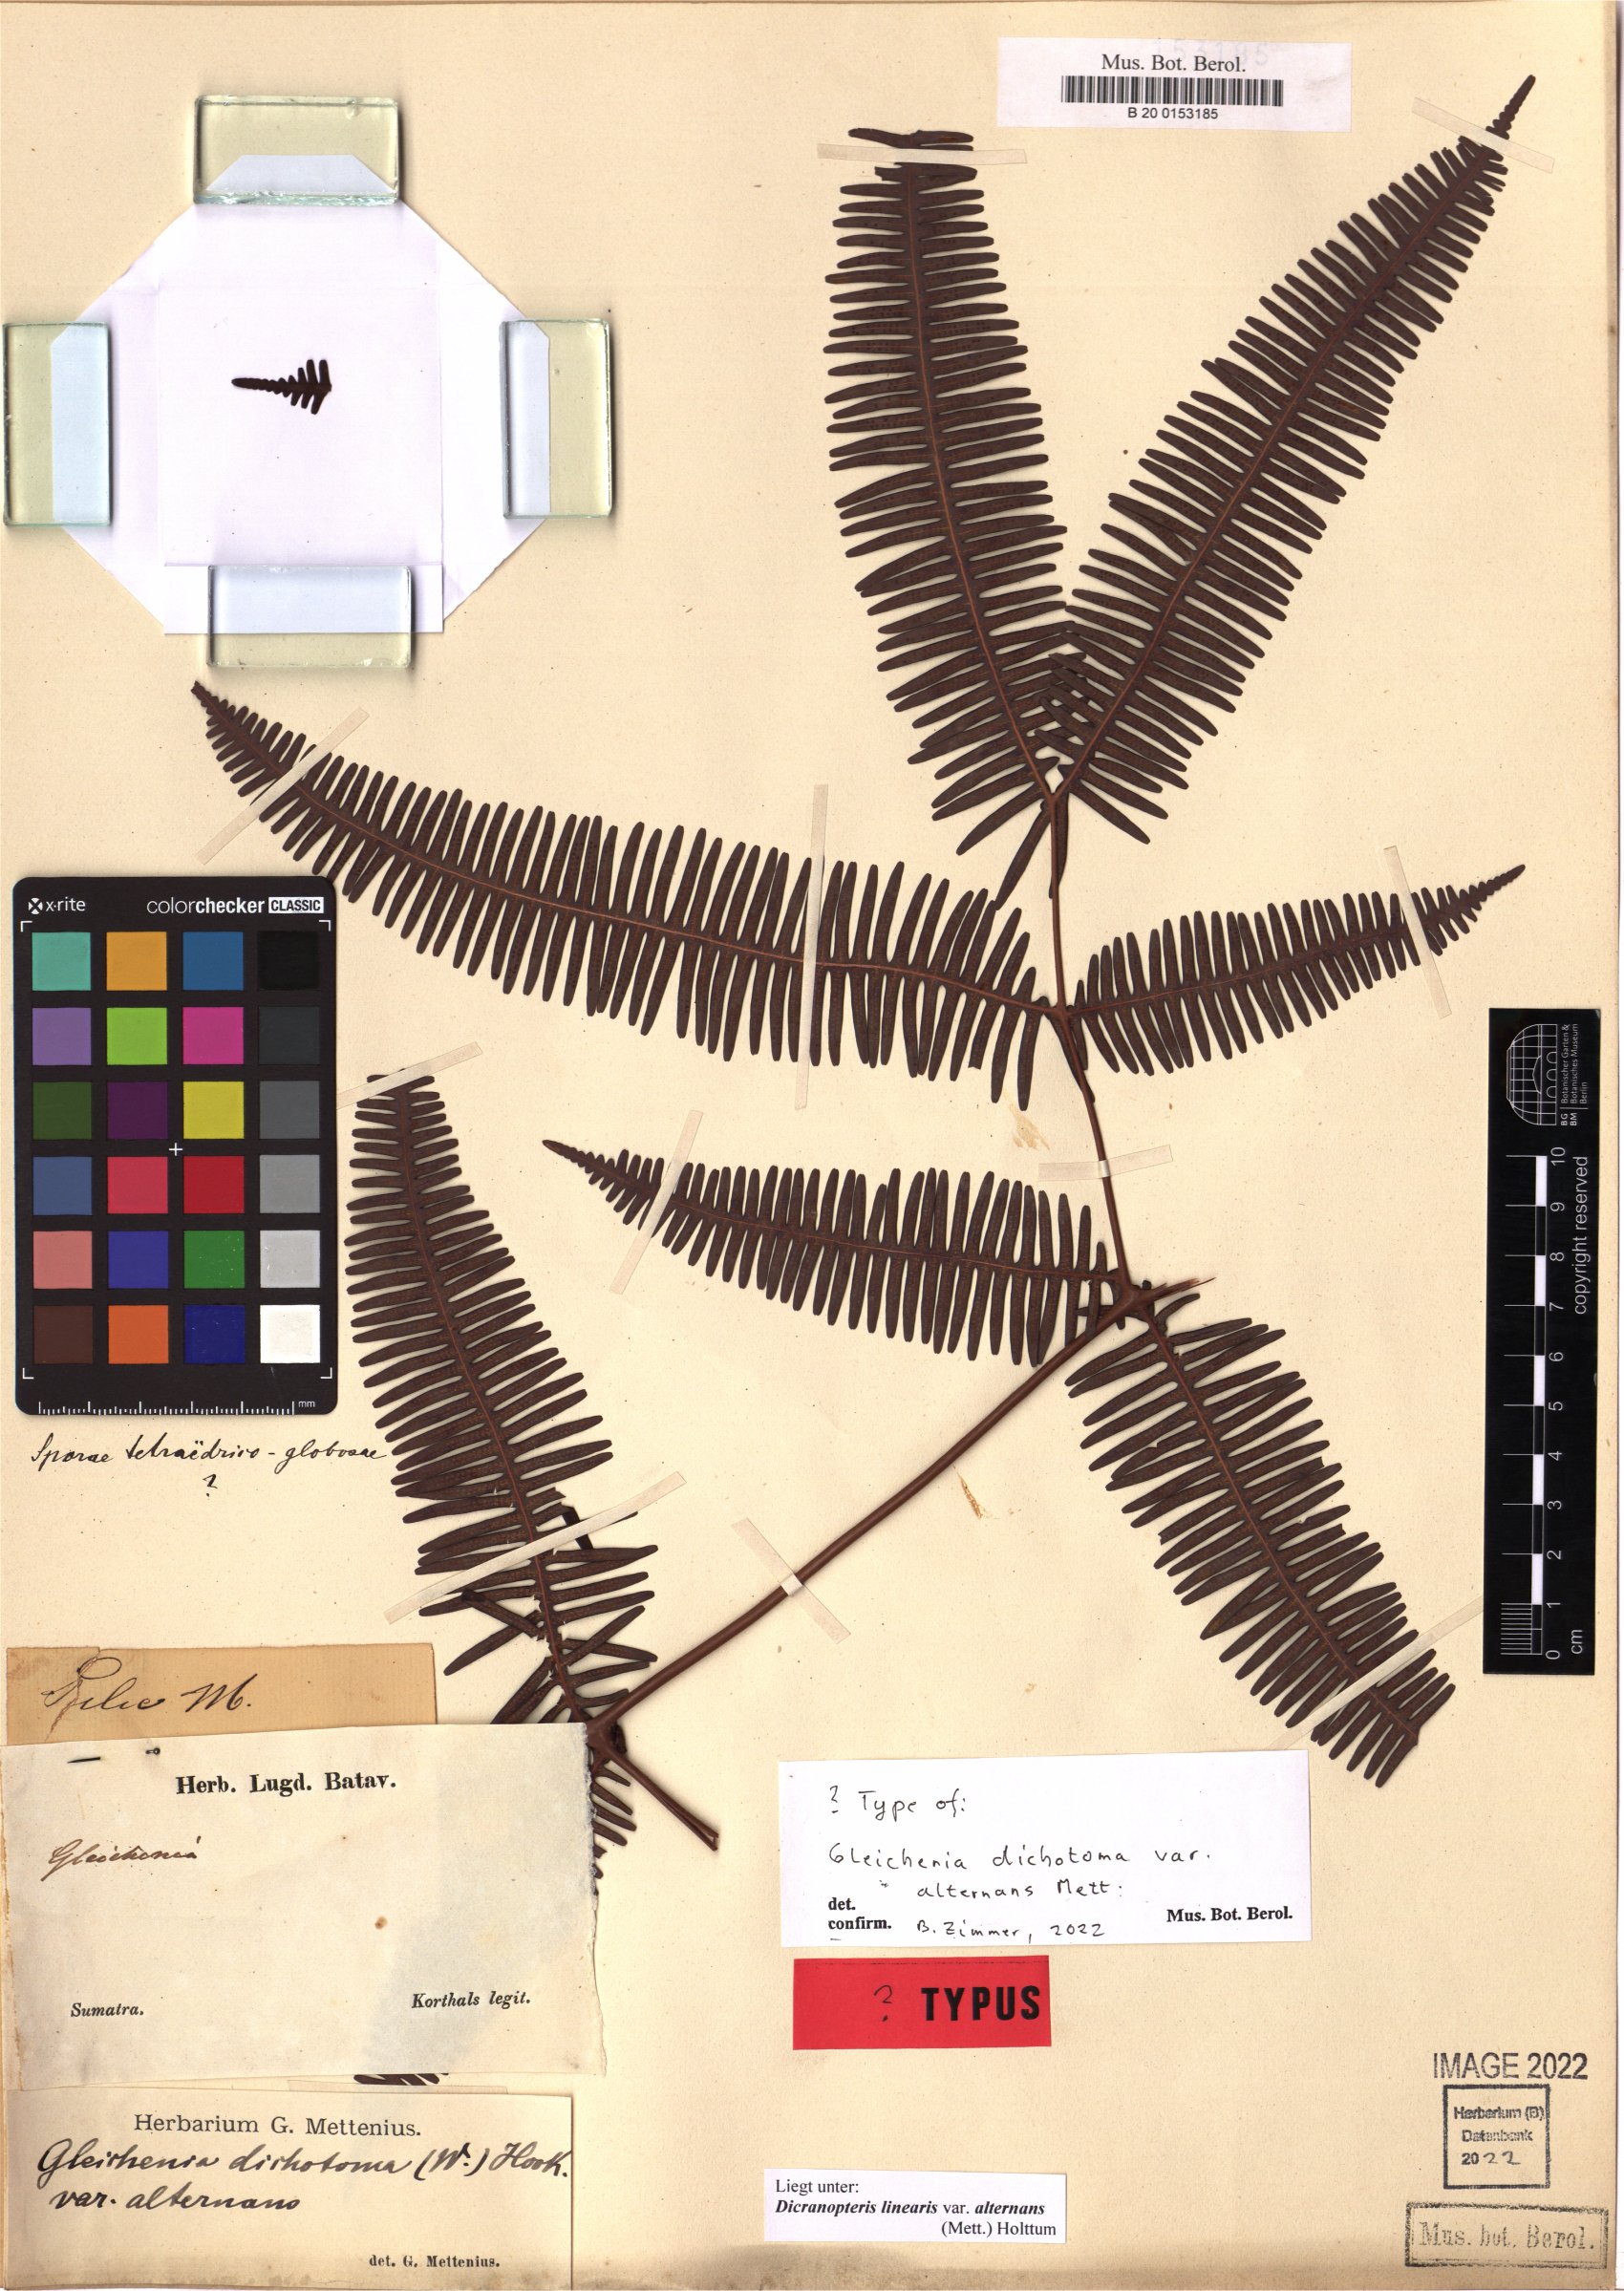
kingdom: Plantae
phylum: Tracheophyta
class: Polypodiopsida
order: Gleicheniales
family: Gleicheniaceae
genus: Dicranopteris
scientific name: Dicranopteris linearis
